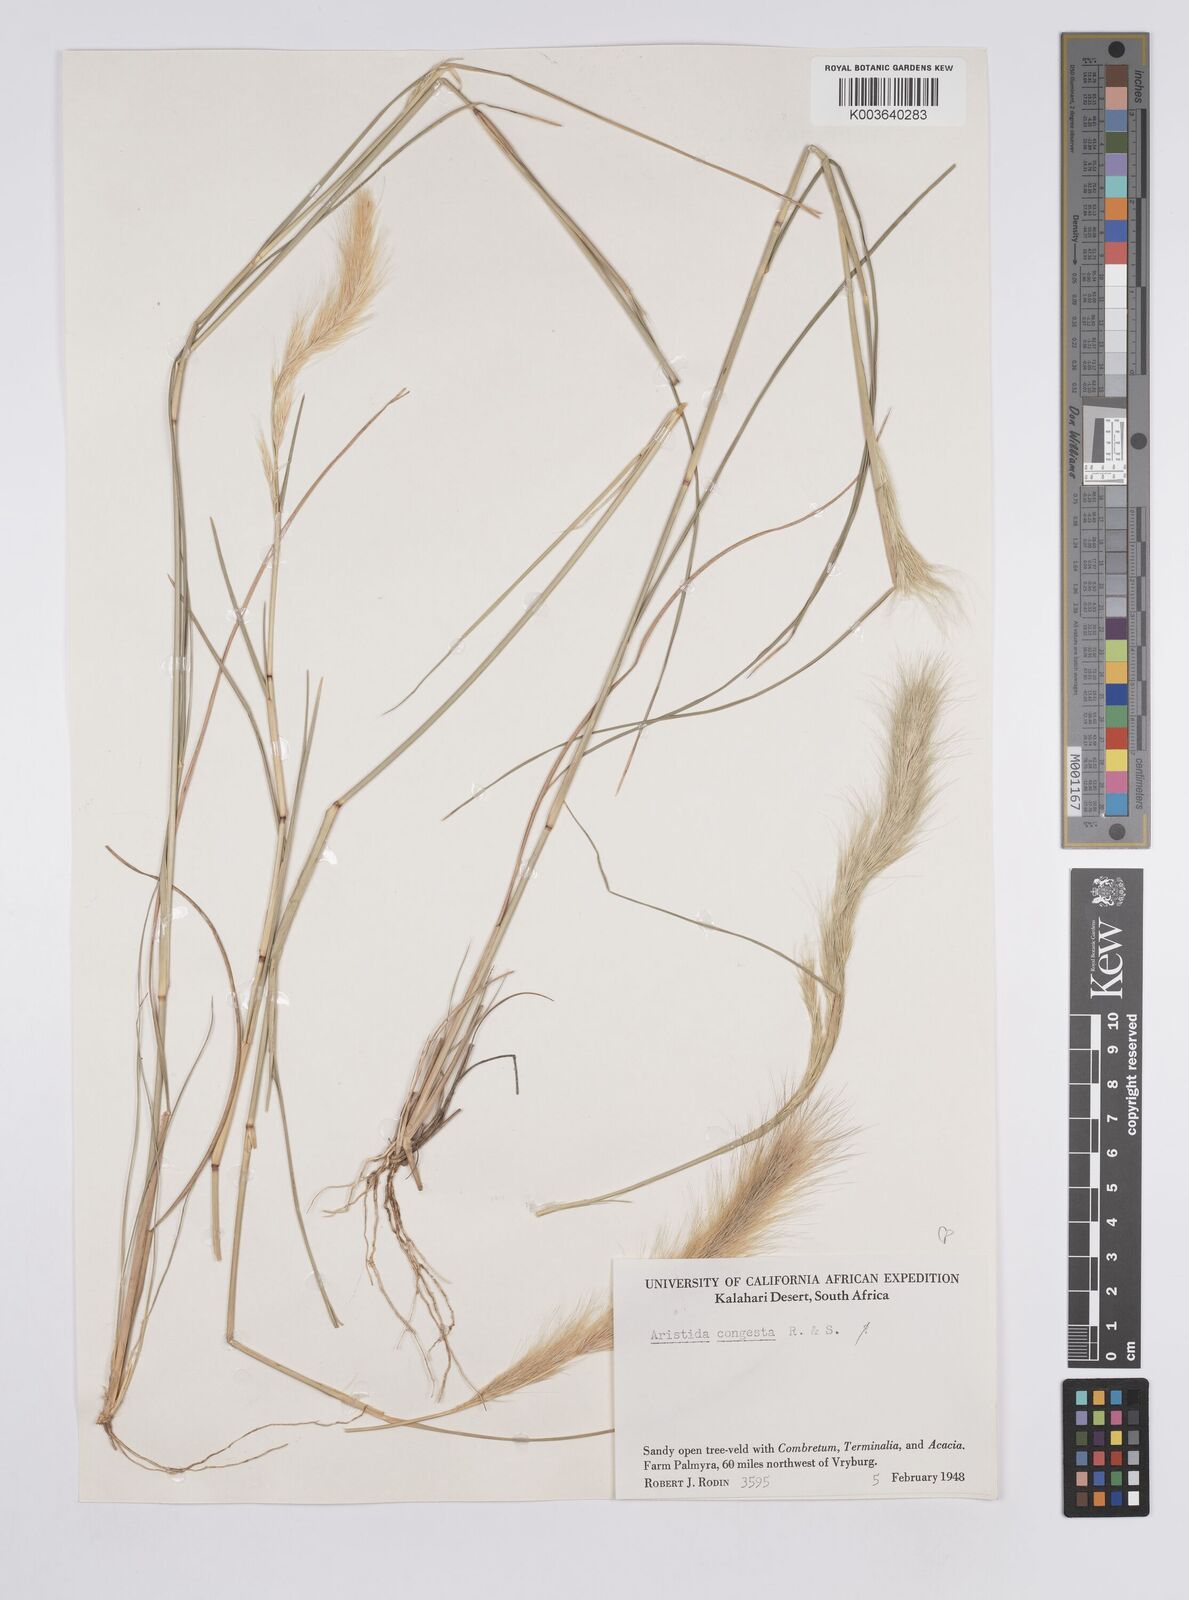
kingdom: Plantae
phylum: Tracheophyta
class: Liliopsida
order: Poales
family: Poaceae
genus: Aristida
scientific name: Aristida congesta
